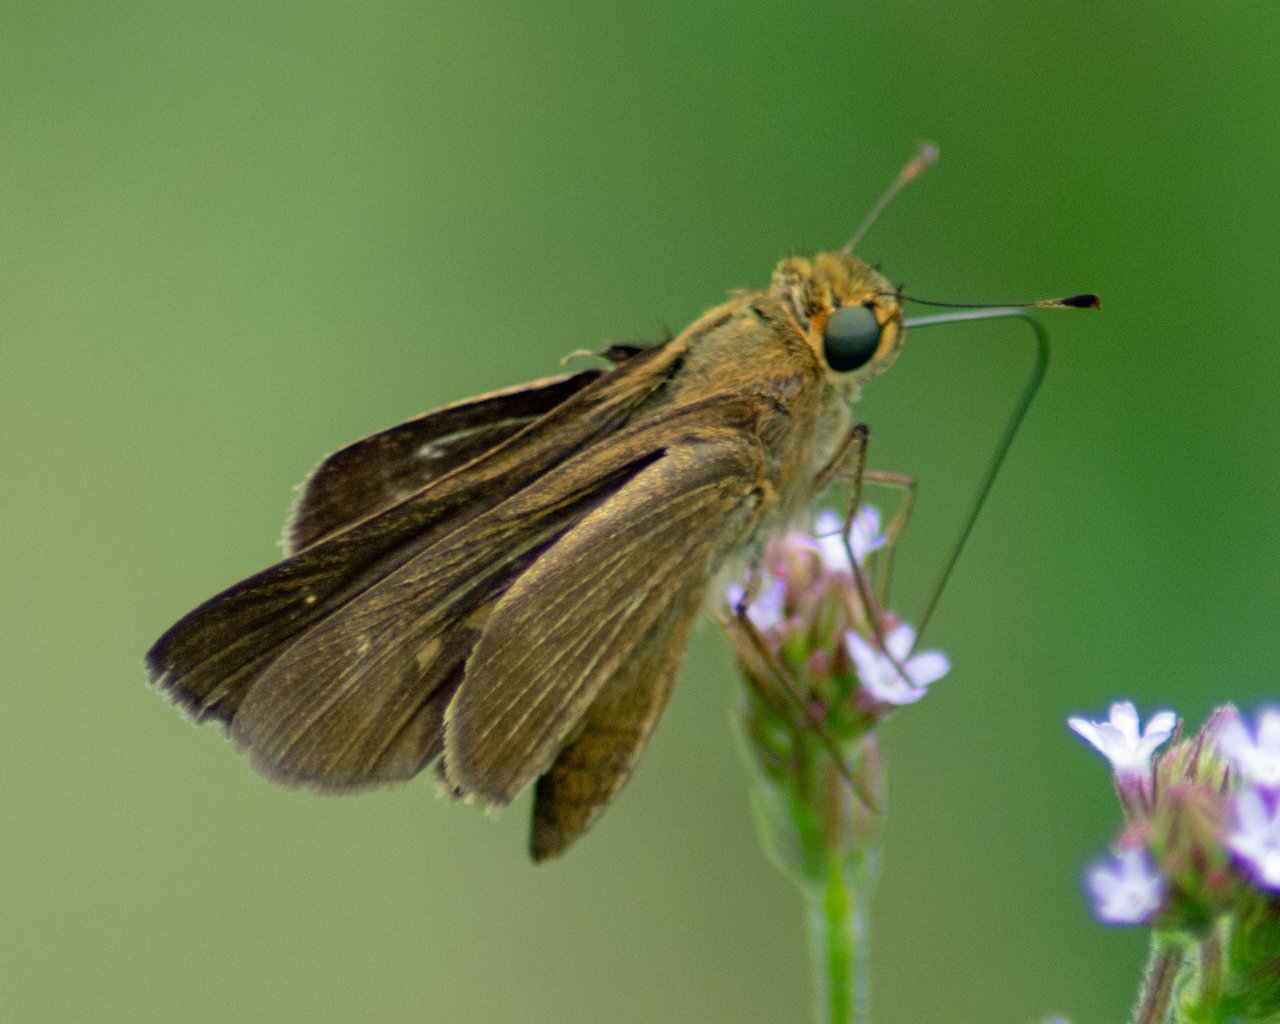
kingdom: Animalia
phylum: Arthropoda
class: Insecta
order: Lepidoptera
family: Hesperiidae
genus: Panoquina
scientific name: Panoquina ocola
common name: Ocola Skipper
